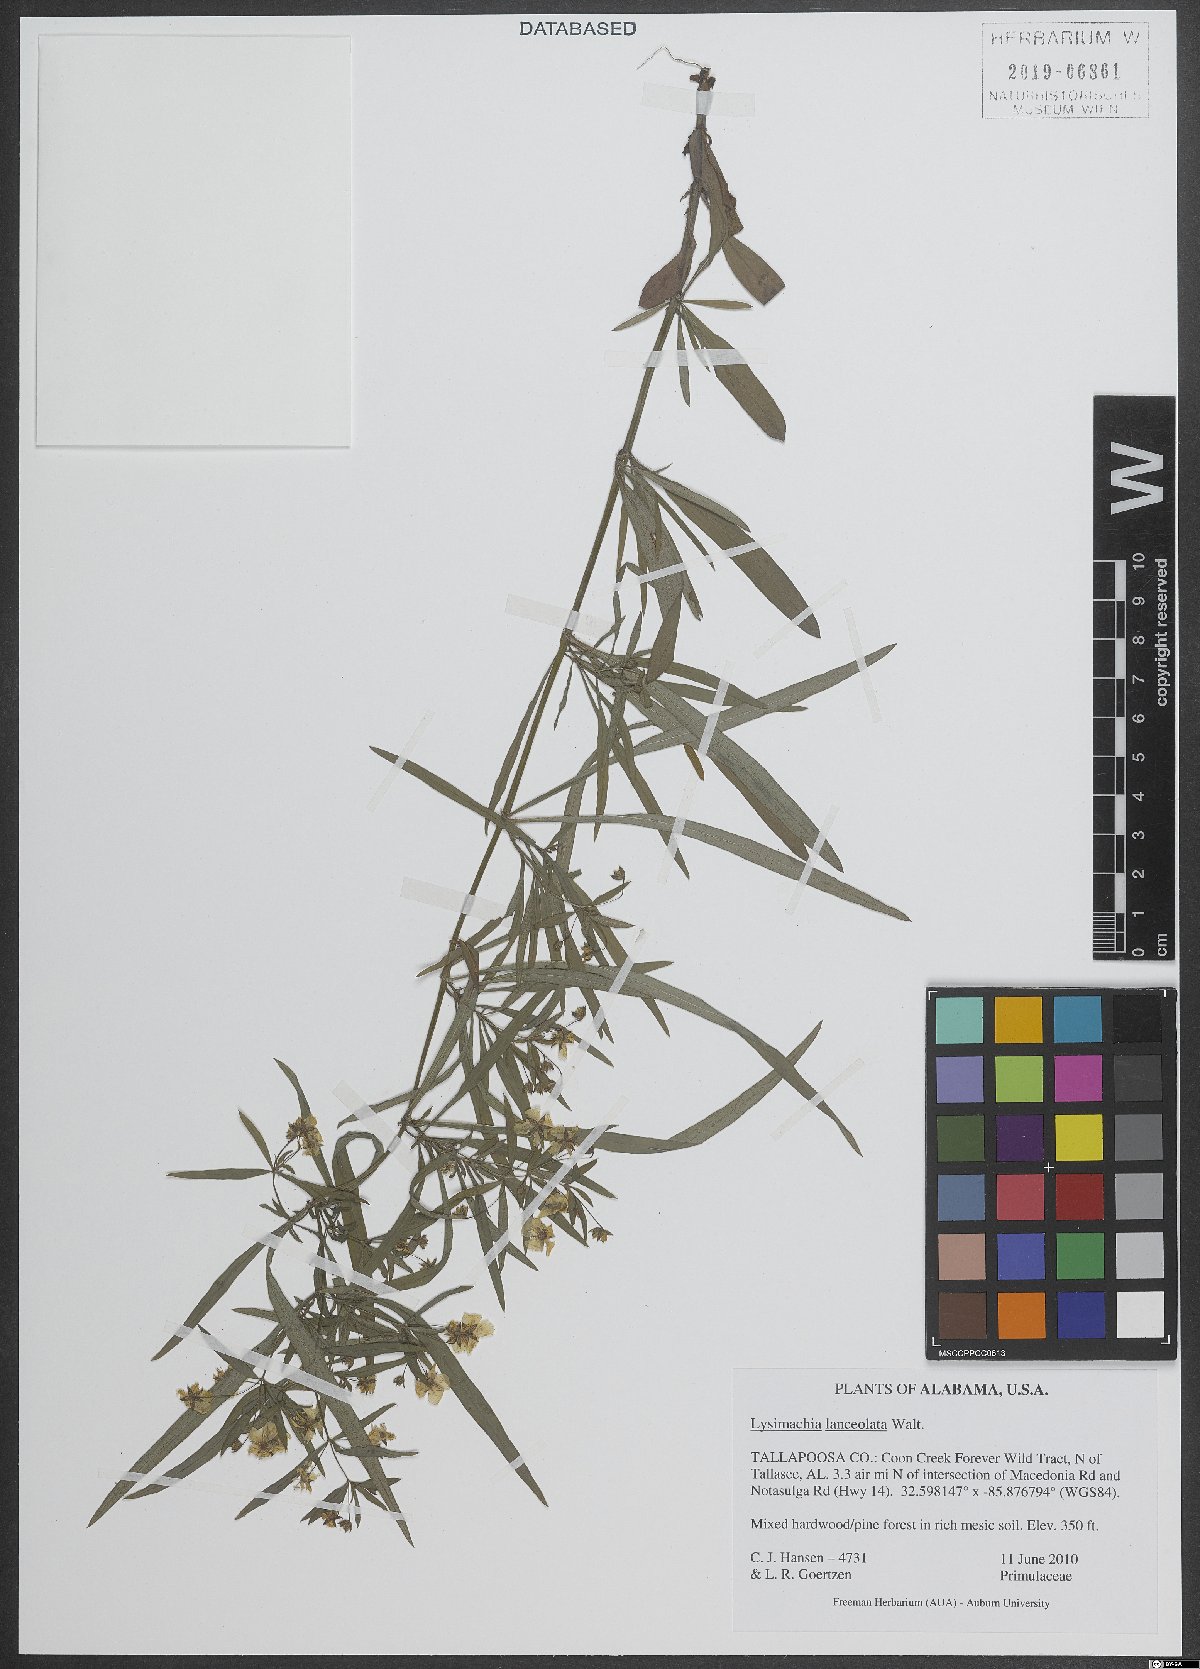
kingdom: Plantae
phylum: Tracheophyta
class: Magnoliopsida
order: Ericales
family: Primulaceae
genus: Lysimachia
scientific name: Lysimachia lanceolata
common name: Lance-leaved loosestrife
